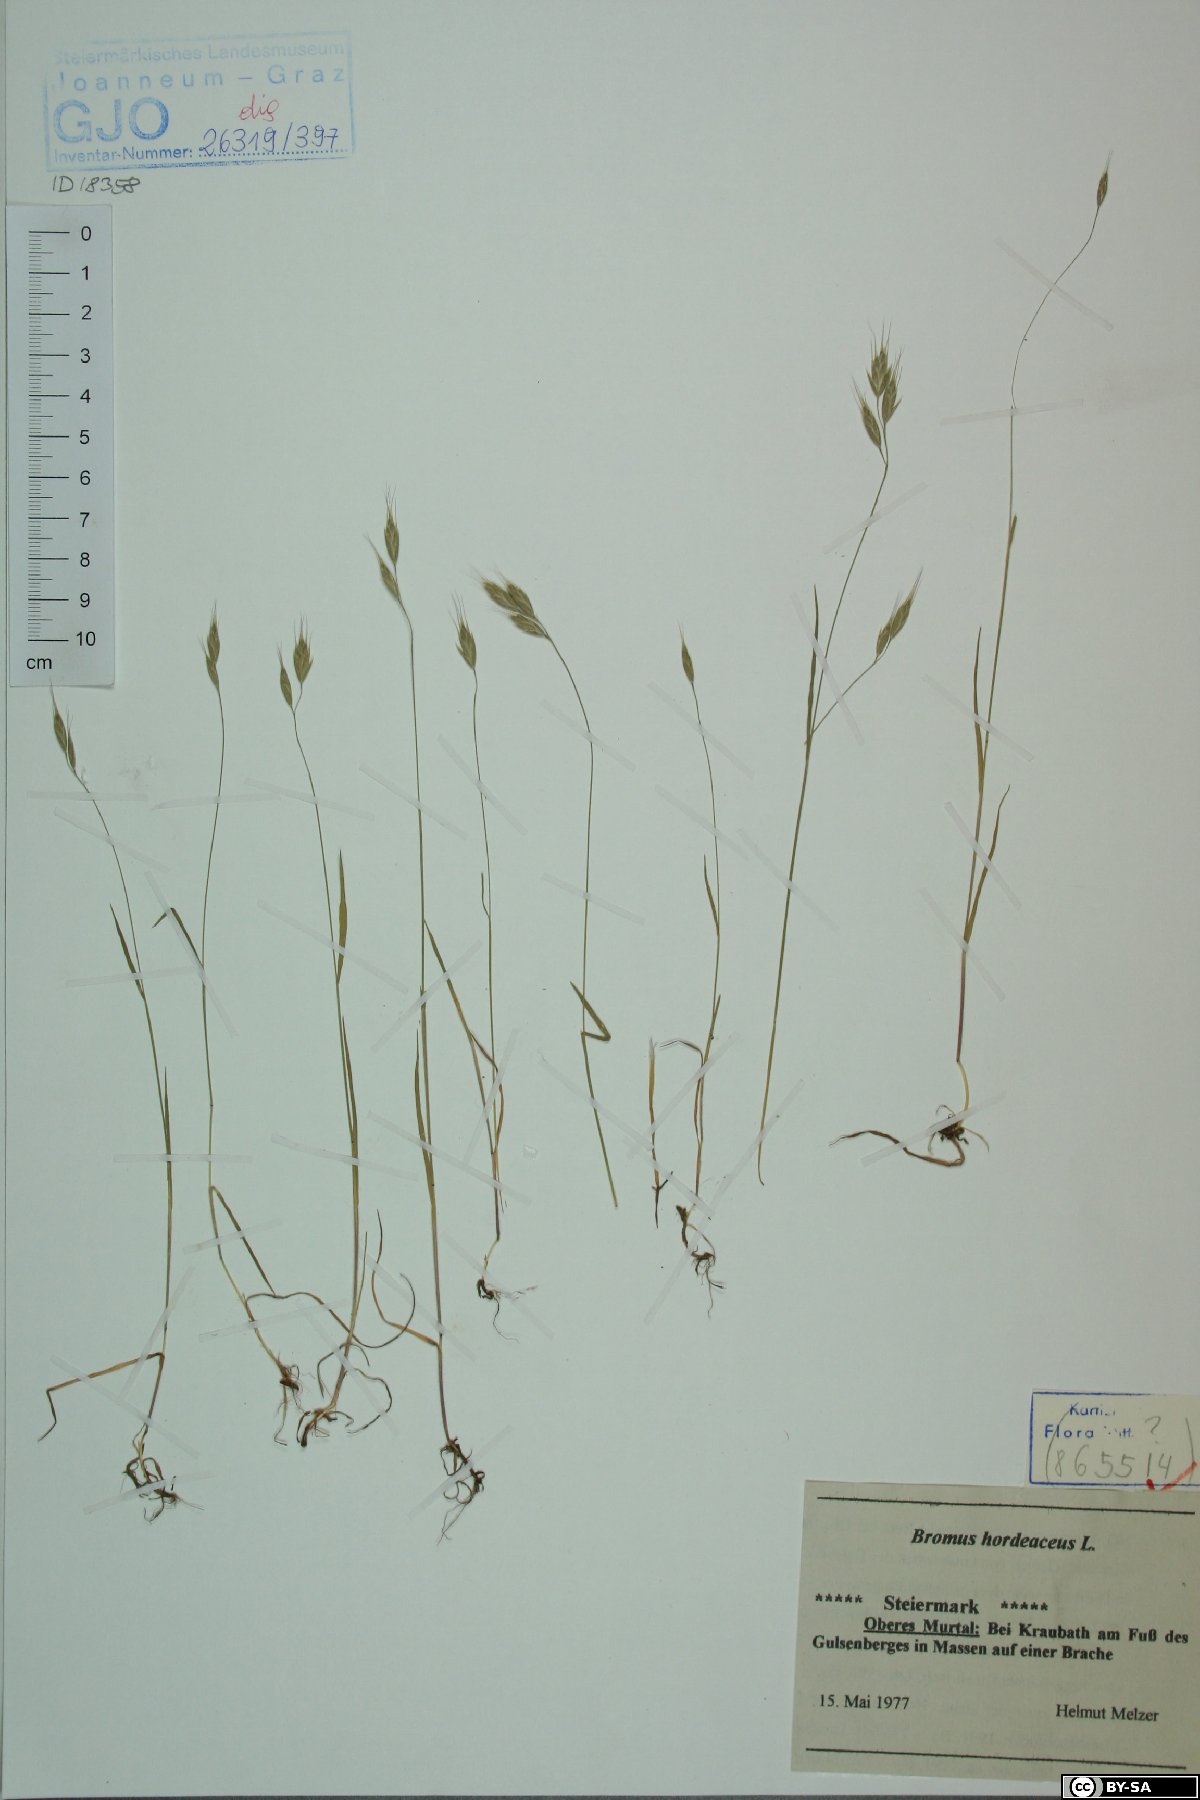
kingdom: Plantae
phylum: Tracheophyta
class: Liliopsida
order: Poales
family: Poaceae
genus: Bromus
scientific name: Bromus hordeaceus
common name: Soft brome
